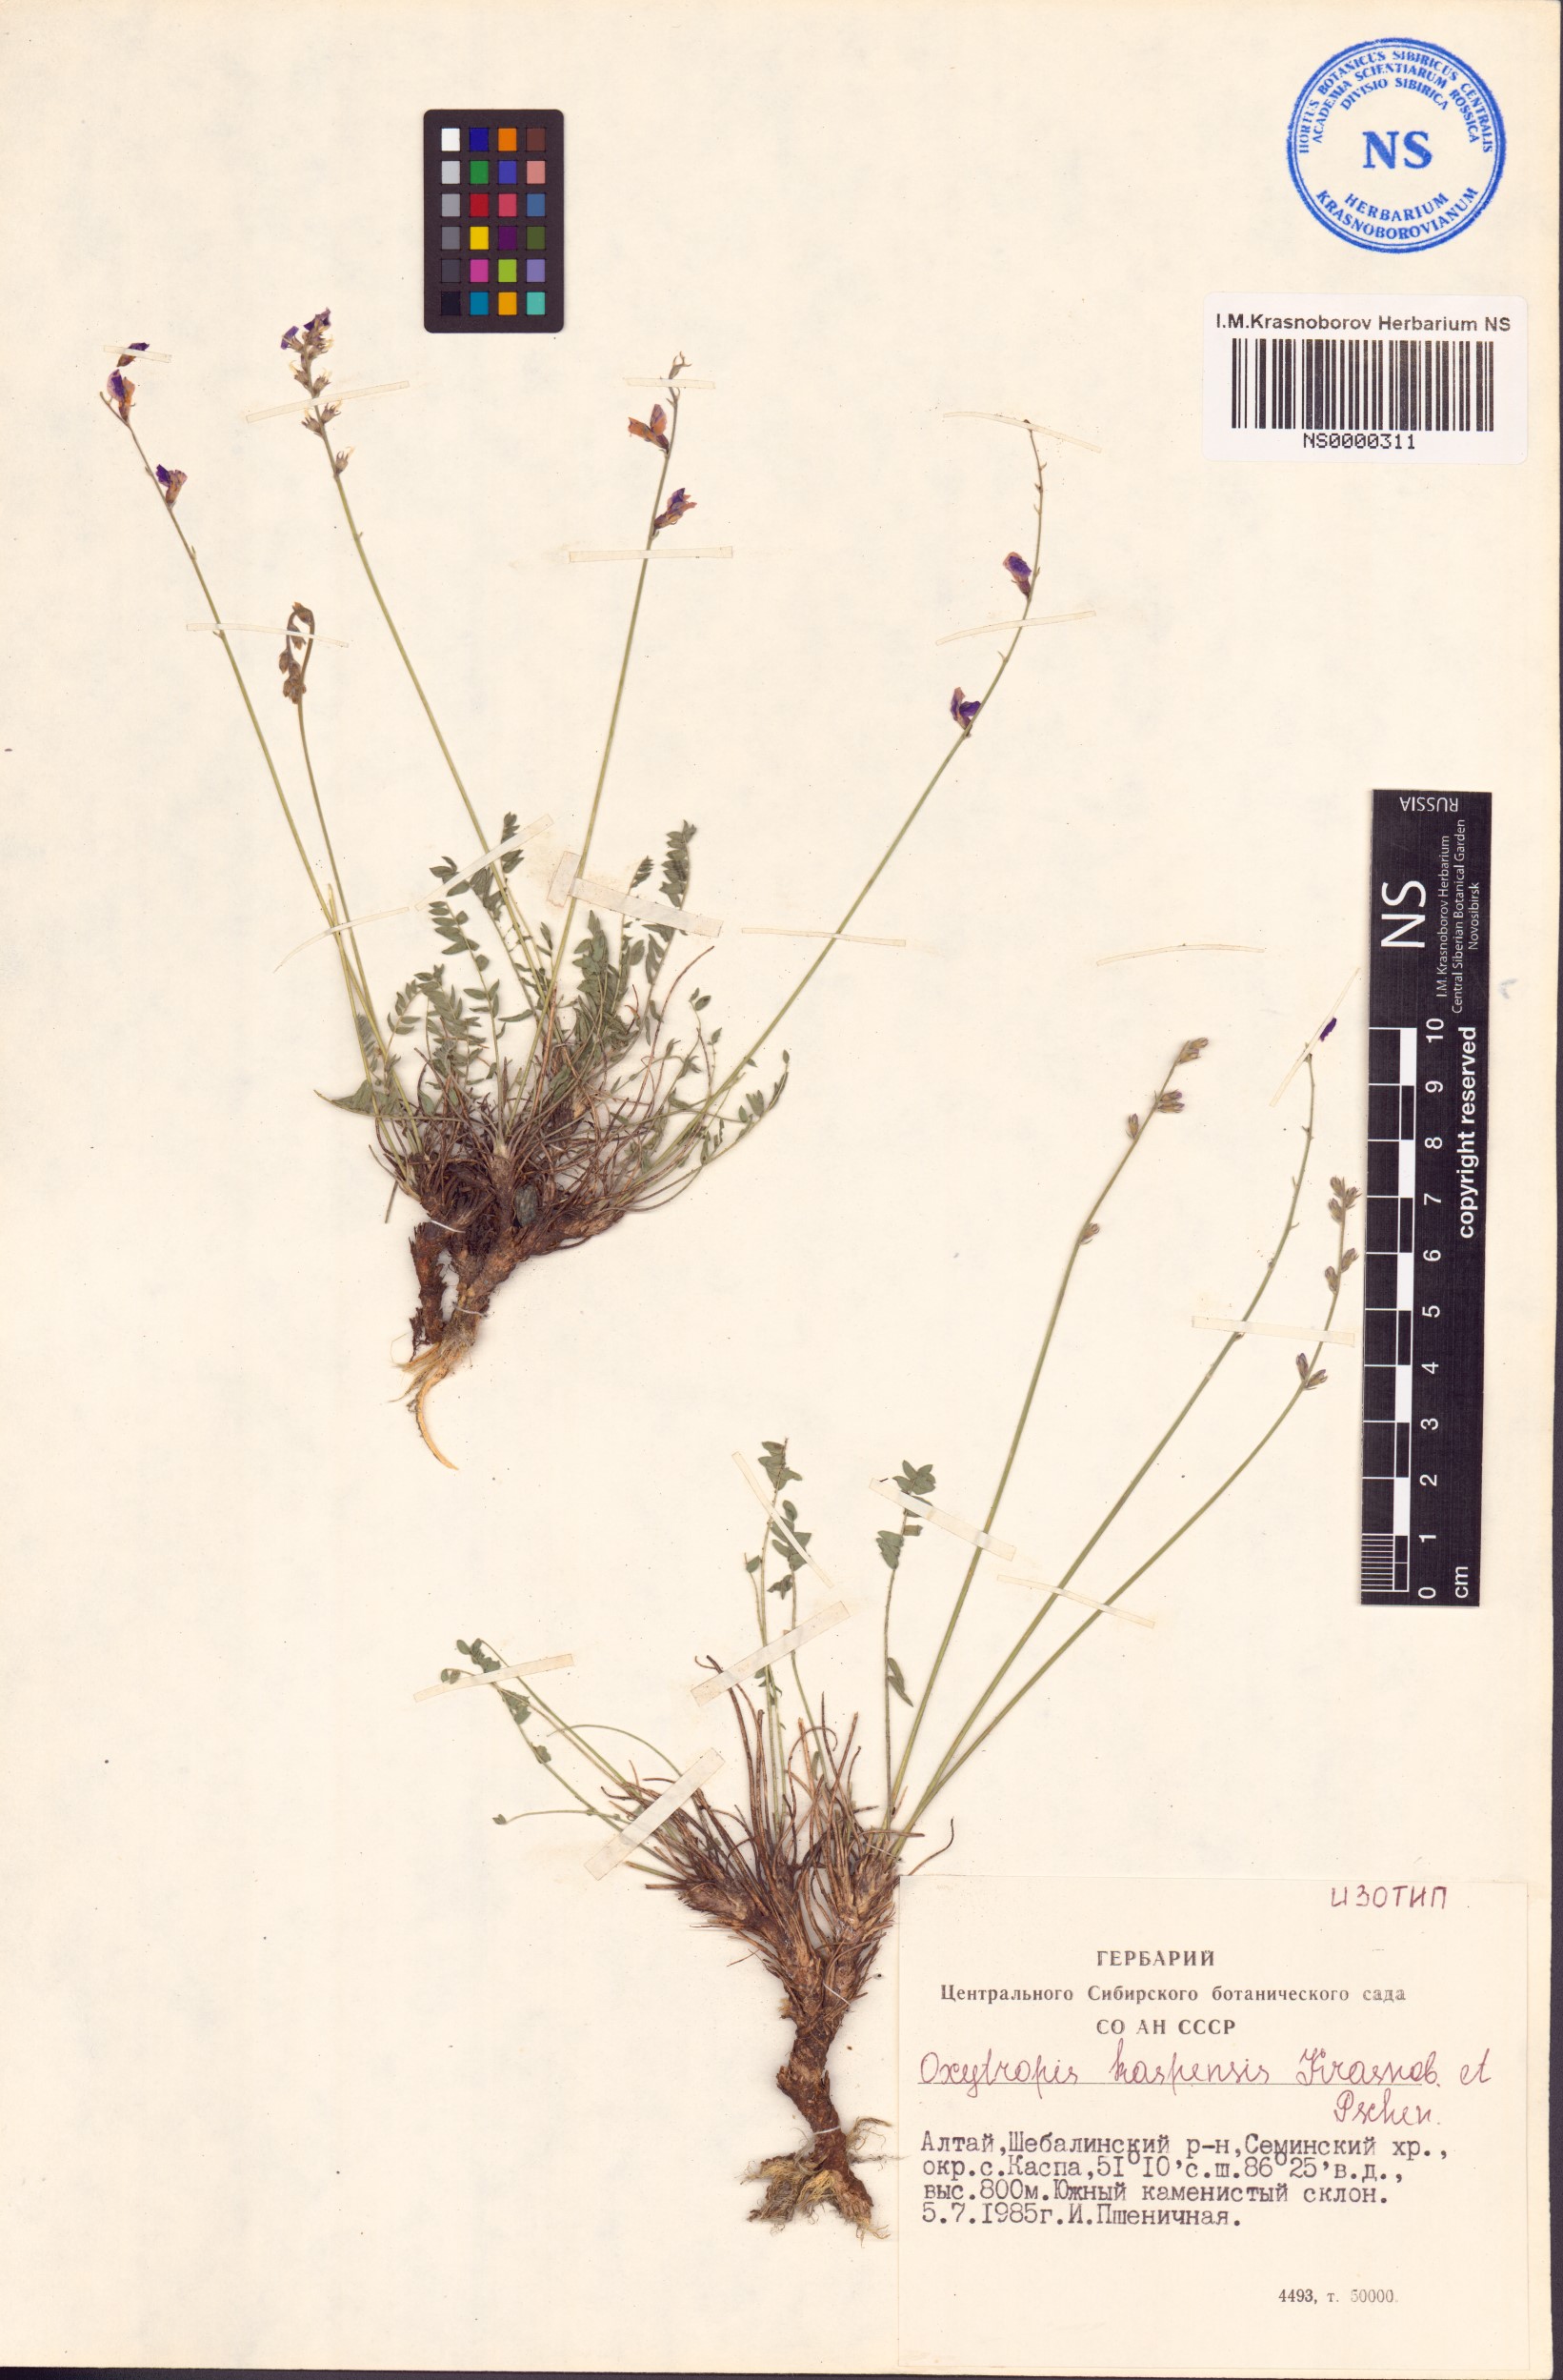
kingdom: Plantae
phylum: Tracheophyta
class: Magnoliopsida
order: Fabales
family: Fabaceae
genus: Oxytropis
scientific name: Oxytropis kaspensis
